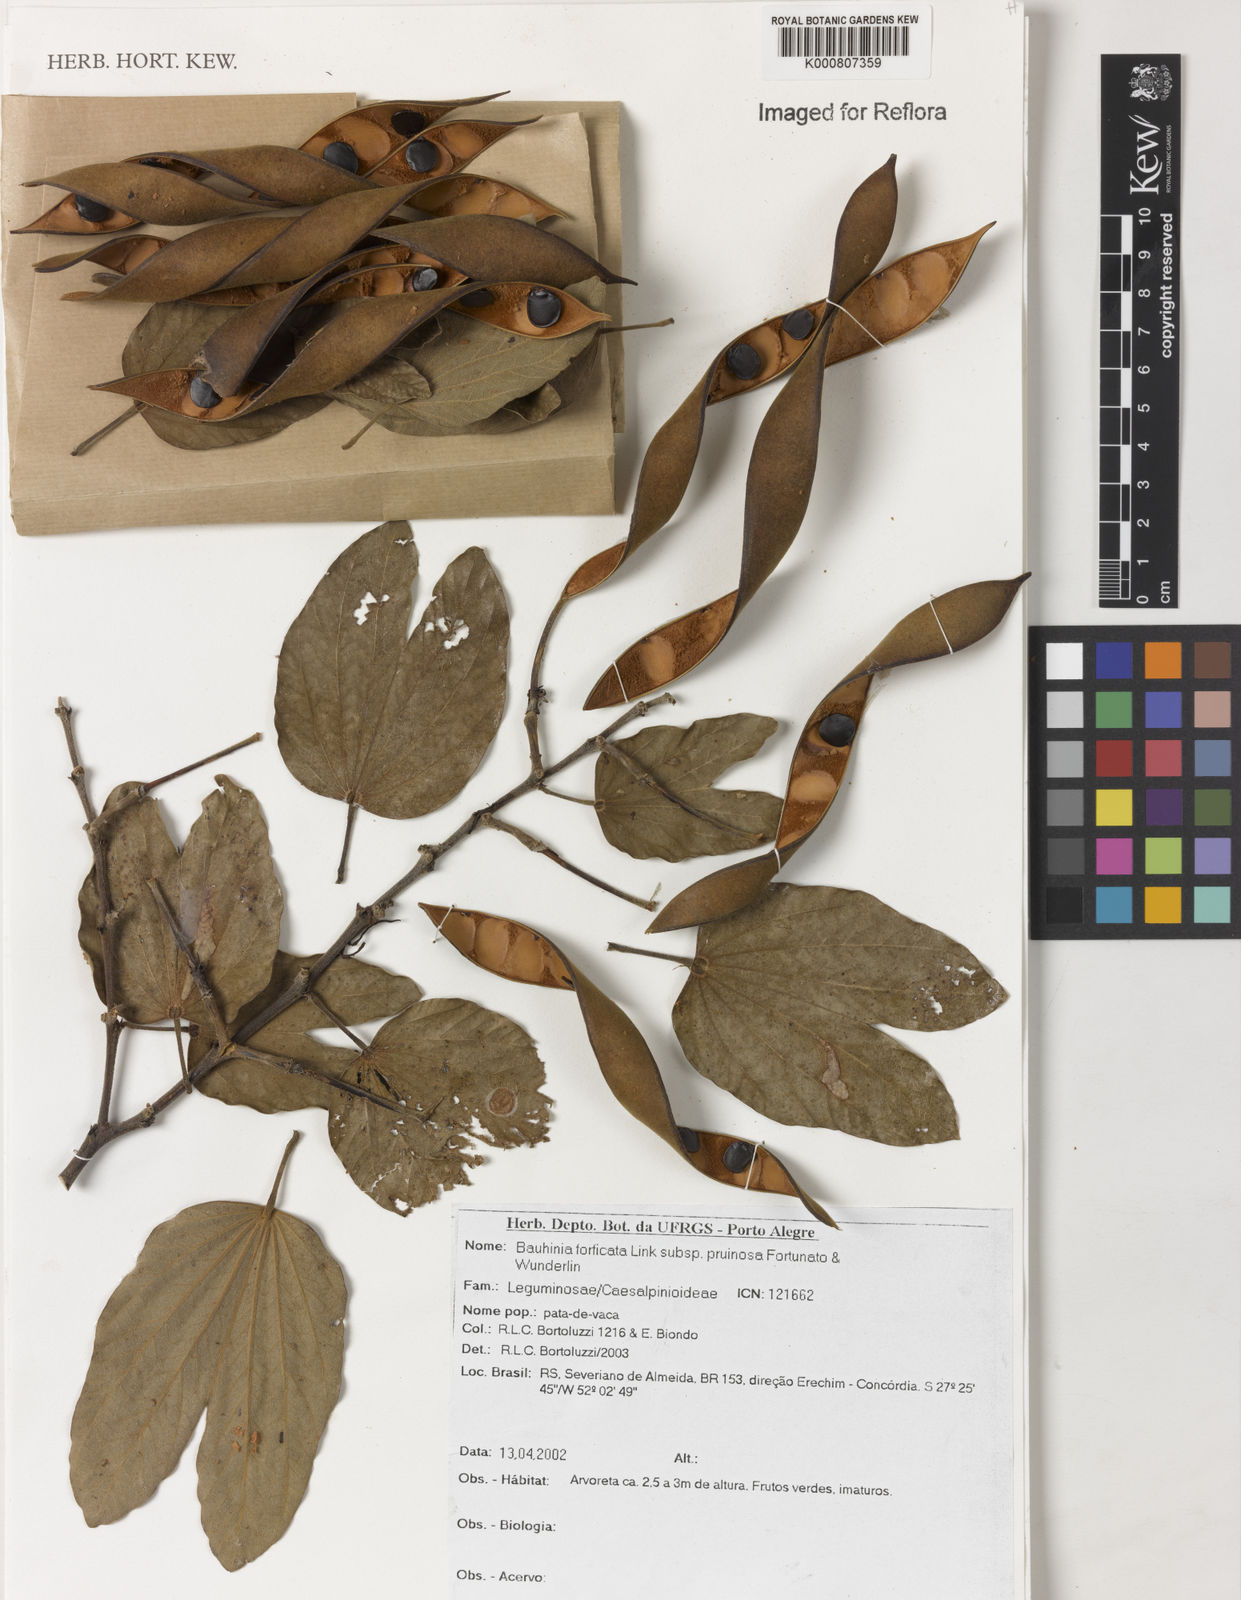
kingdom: Plantae
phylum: Tracheophyta
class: Magnoliopsida
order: Fabales
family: Fabaceae
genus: Bauhinia
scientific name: Bauhinia forficata
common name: Orchid tree
